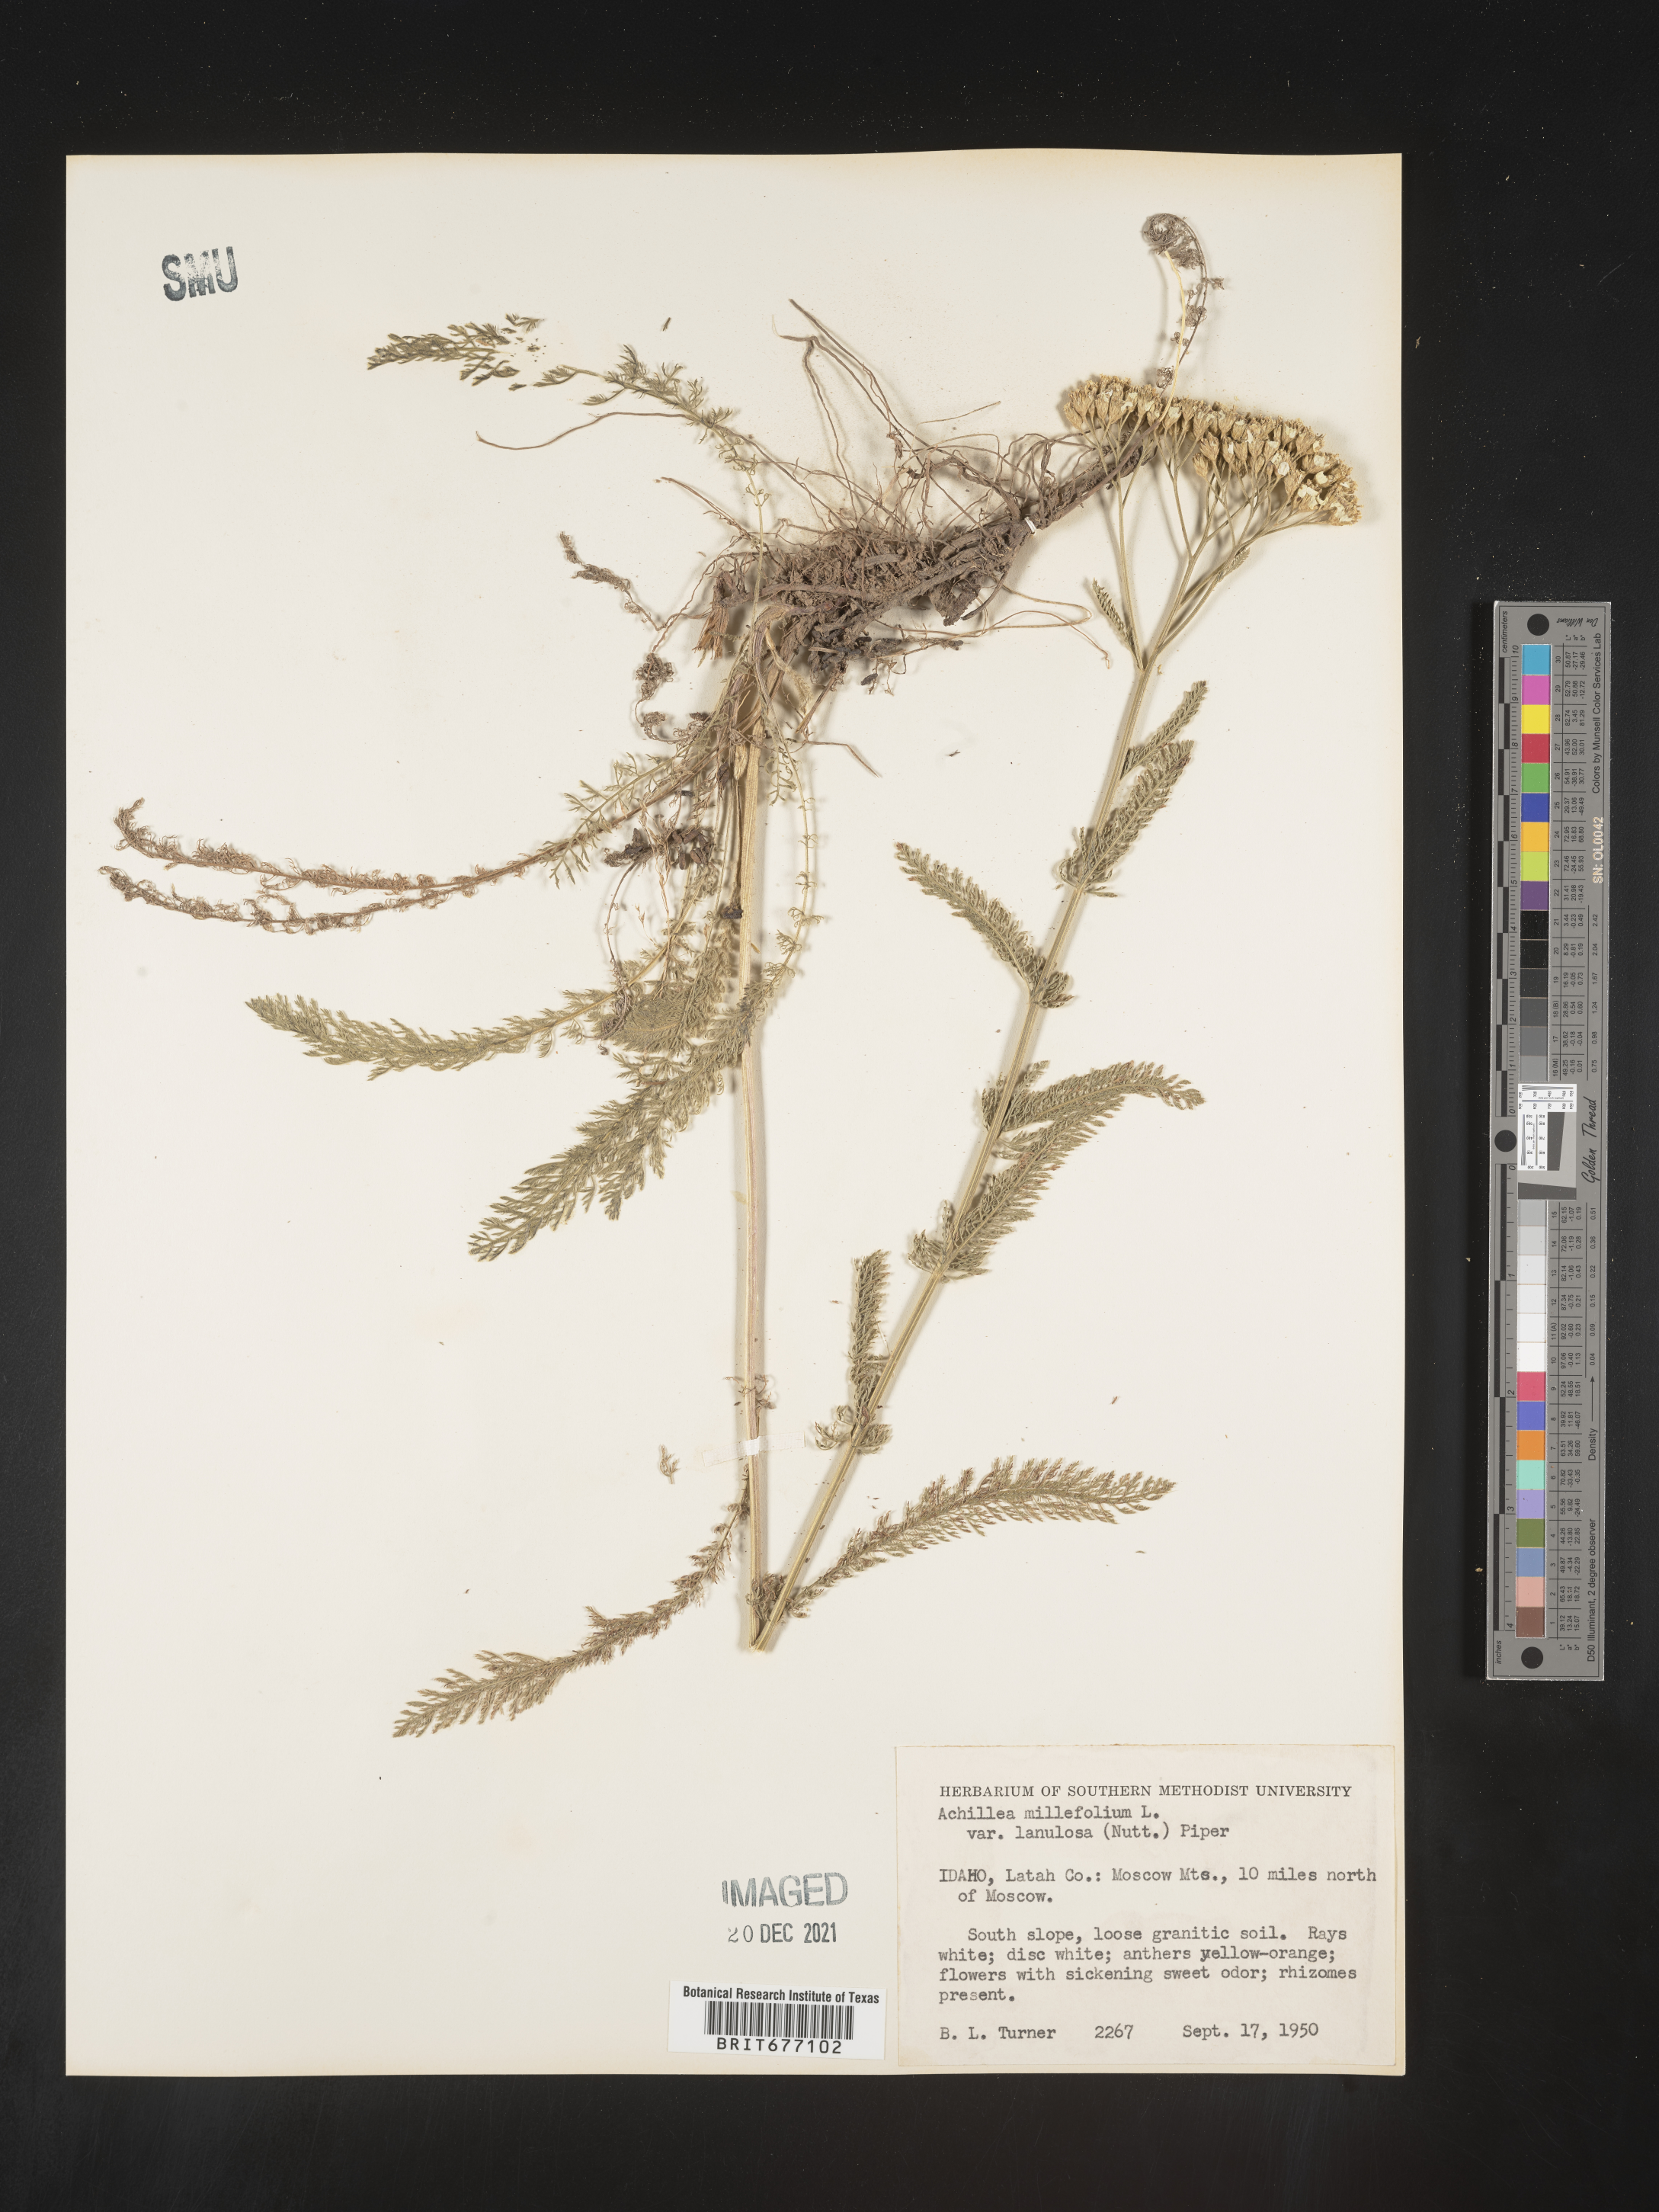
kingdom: Plantae
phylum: Tracheophyta
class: Magnoliopsida
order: Asterales
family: Asteraceae
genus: Achillea
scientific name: Achillea millefolium
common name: Yarrow
